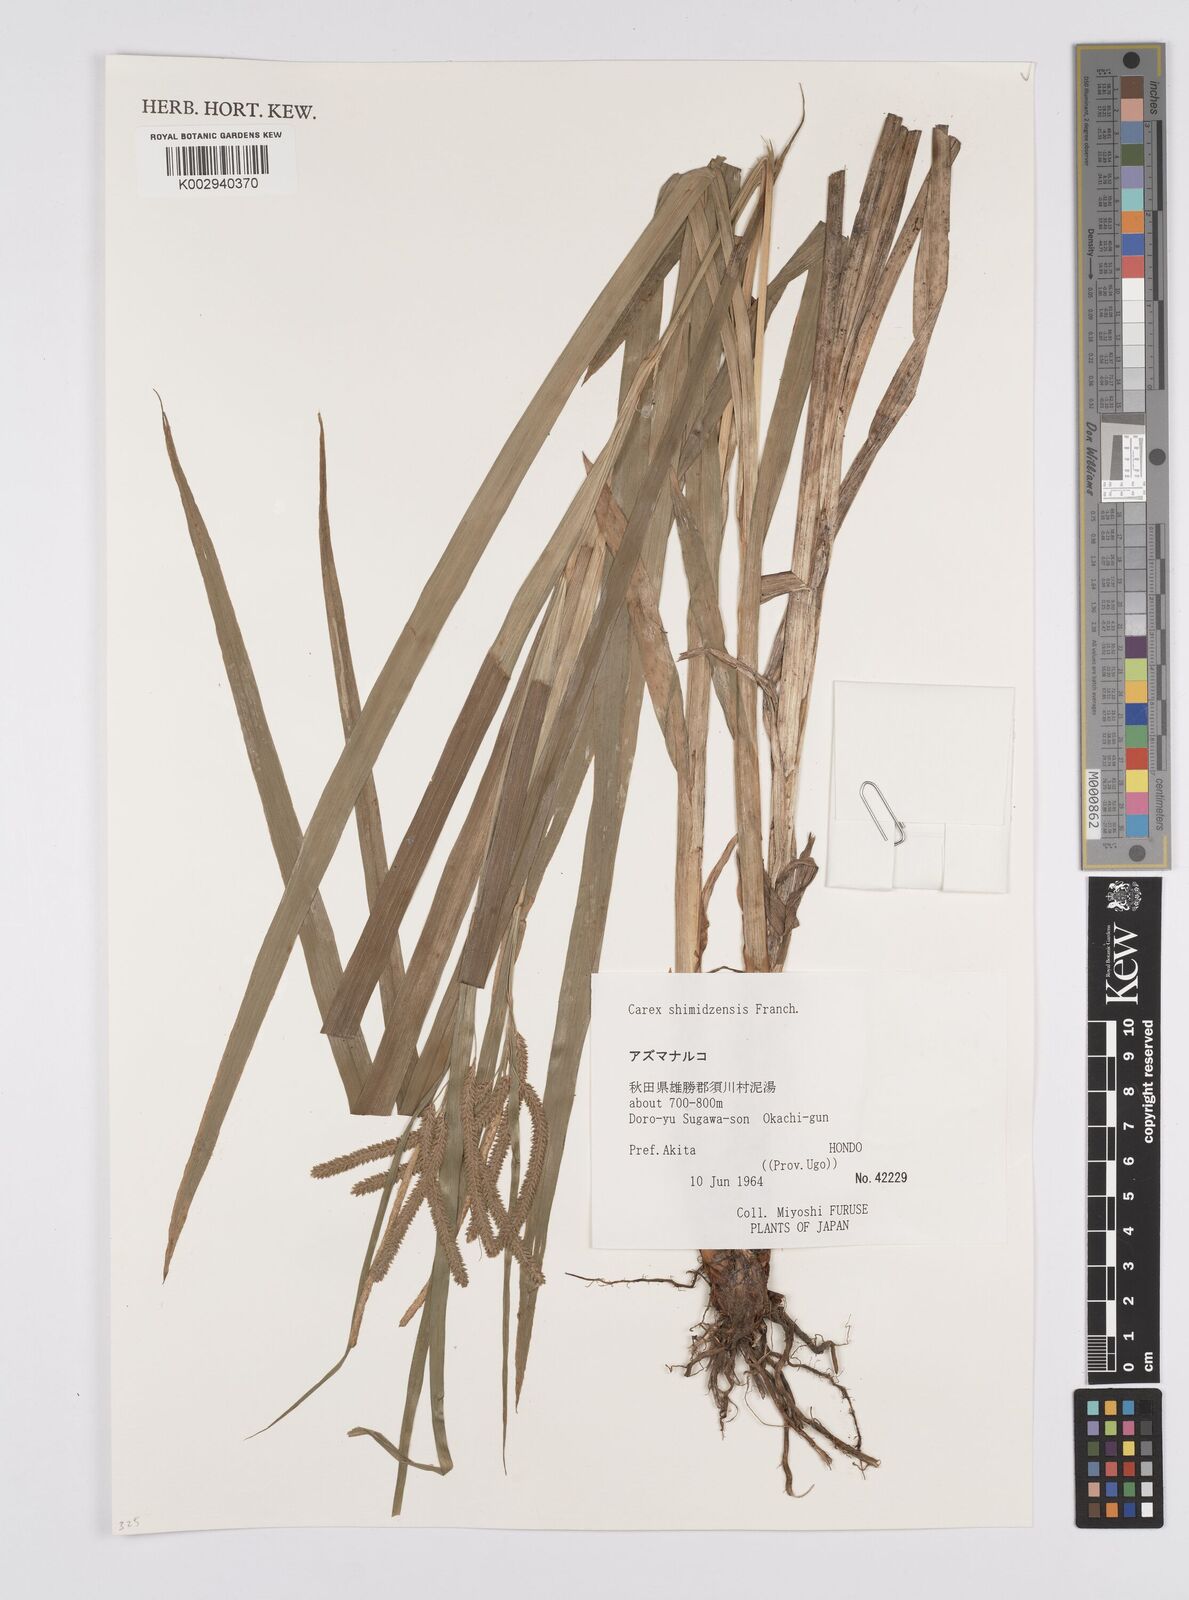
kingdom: Plantae
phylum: Tracheophyta
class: Liliopsida
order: Poales
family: Cyperaceae
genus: Carex
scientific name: Carex shimidzensis
